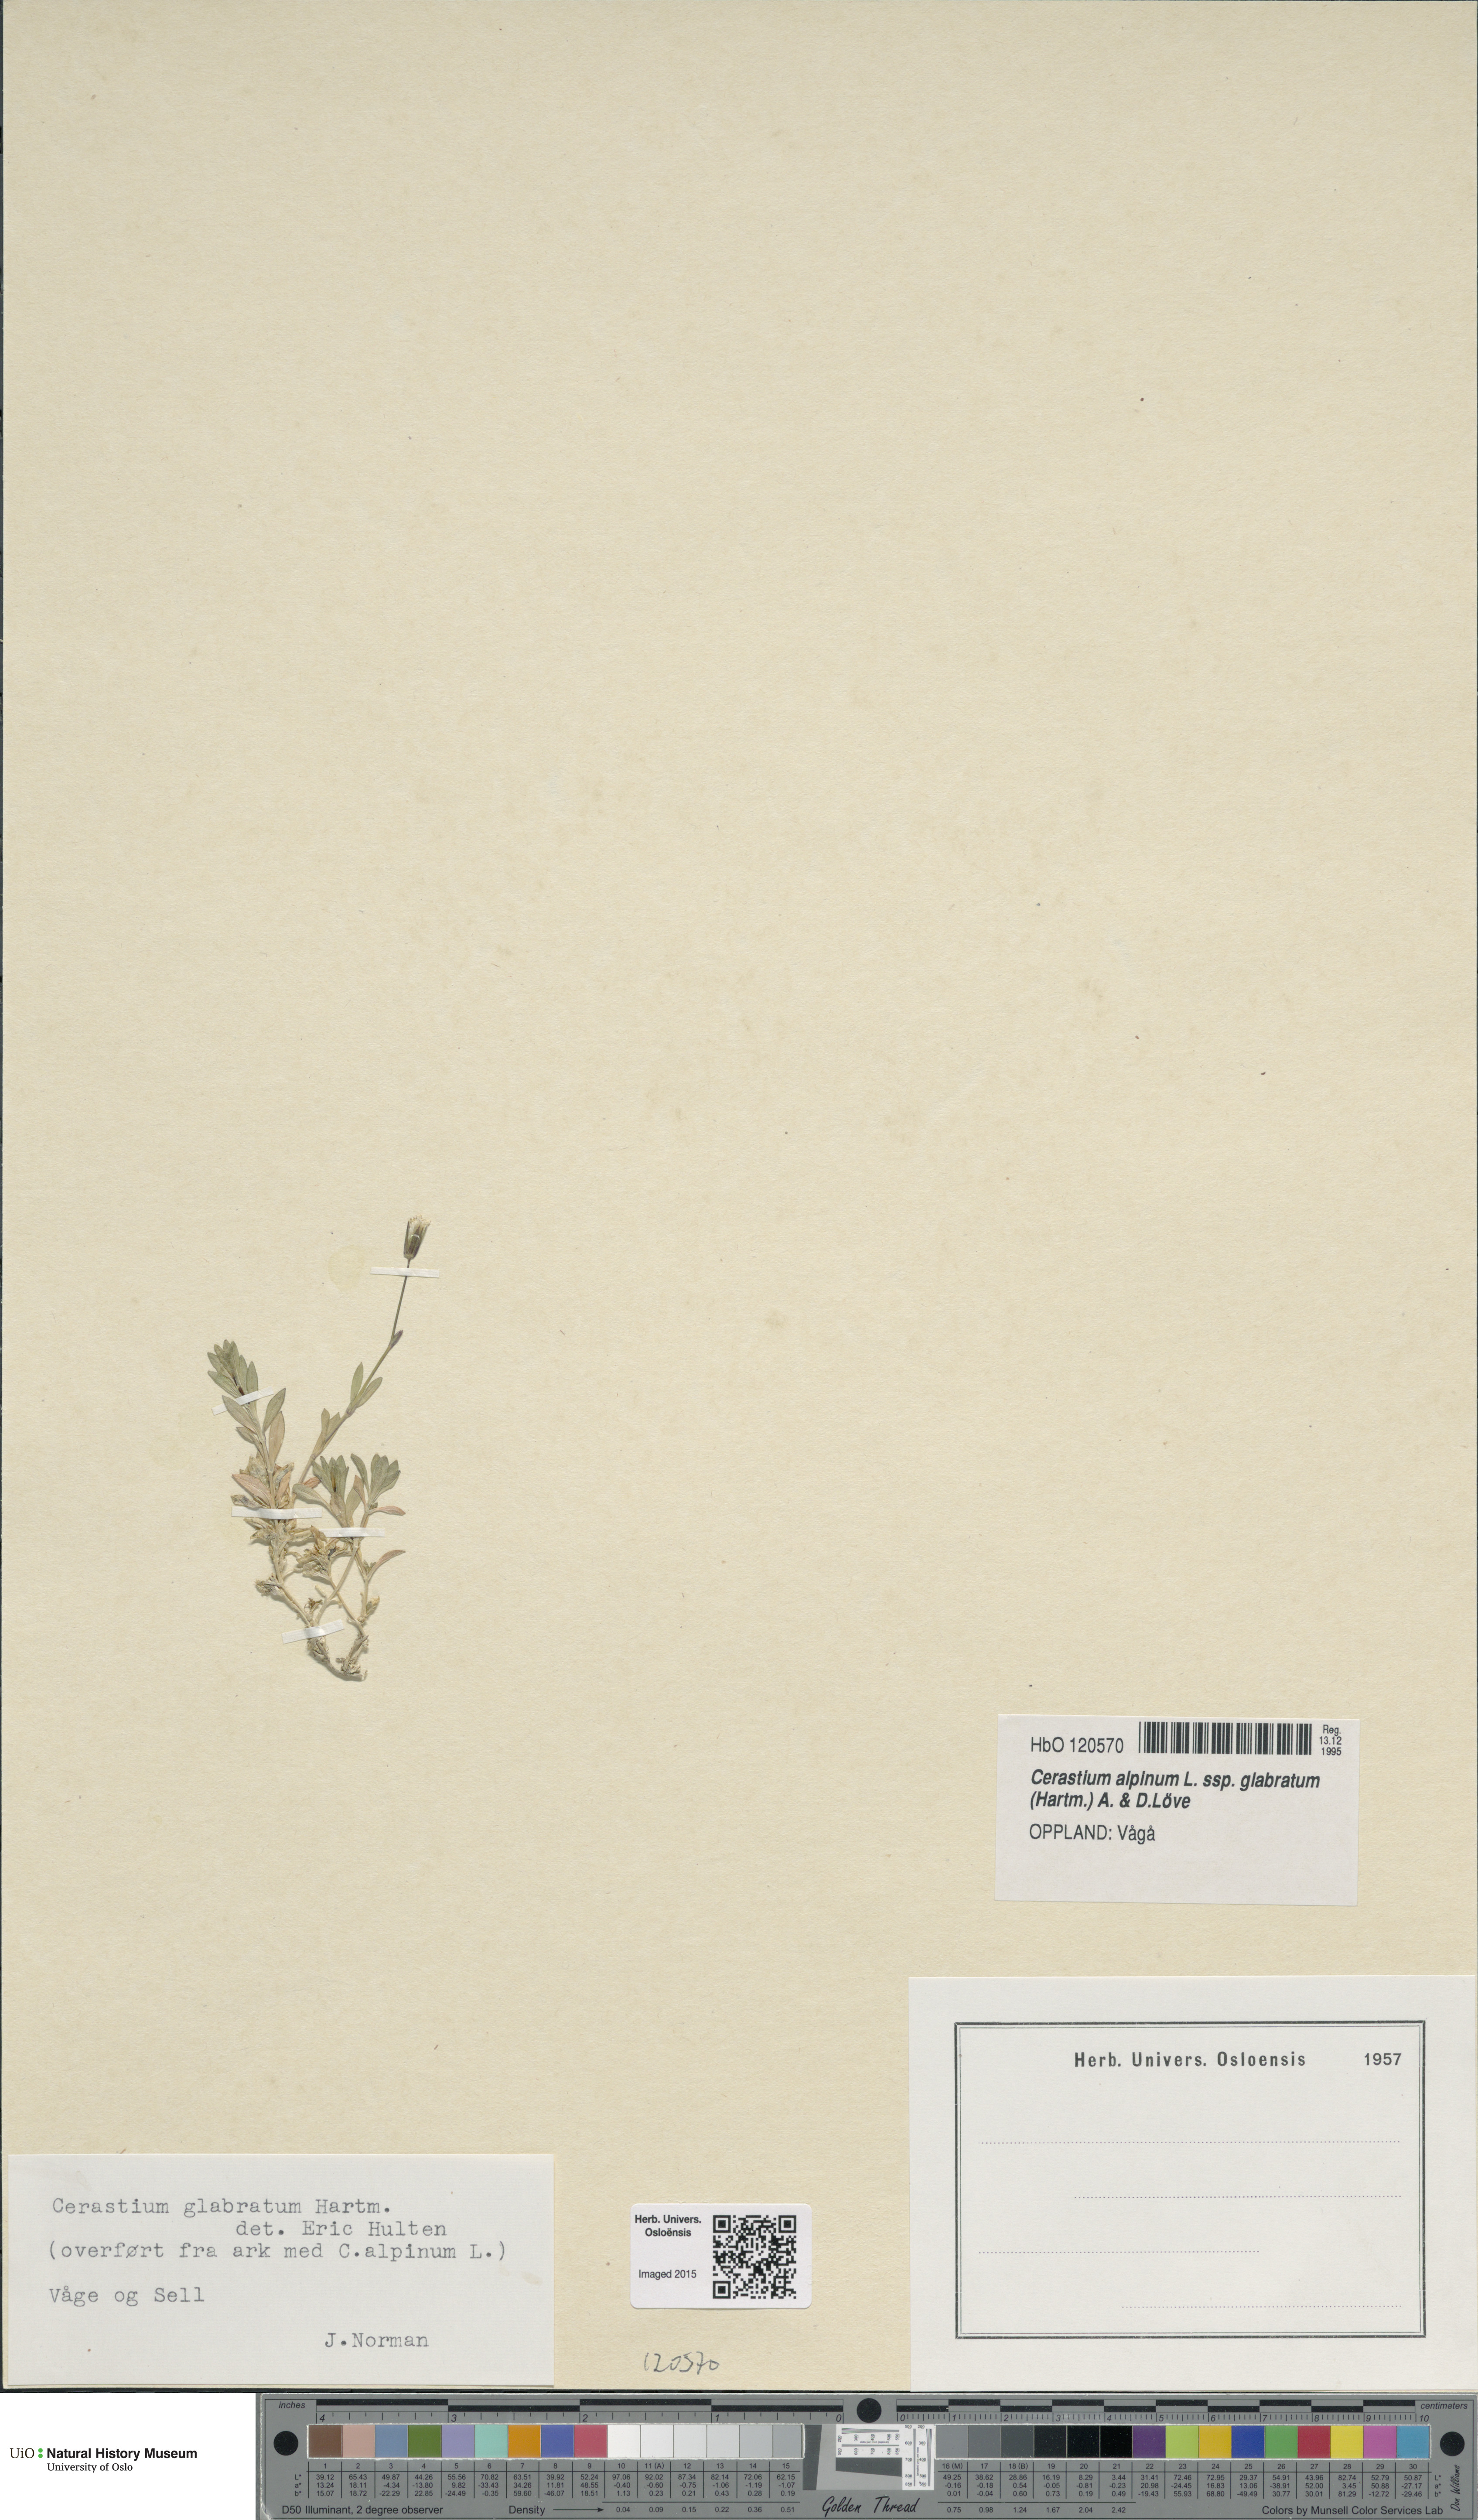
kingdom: Plantae
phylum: Tracheophyta
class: Magnoliopsida
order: Caryophyllales
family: Caryophyllaceae
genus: Cerastium
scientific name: Cerastium alpinum
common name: Alpine mouse-ear
